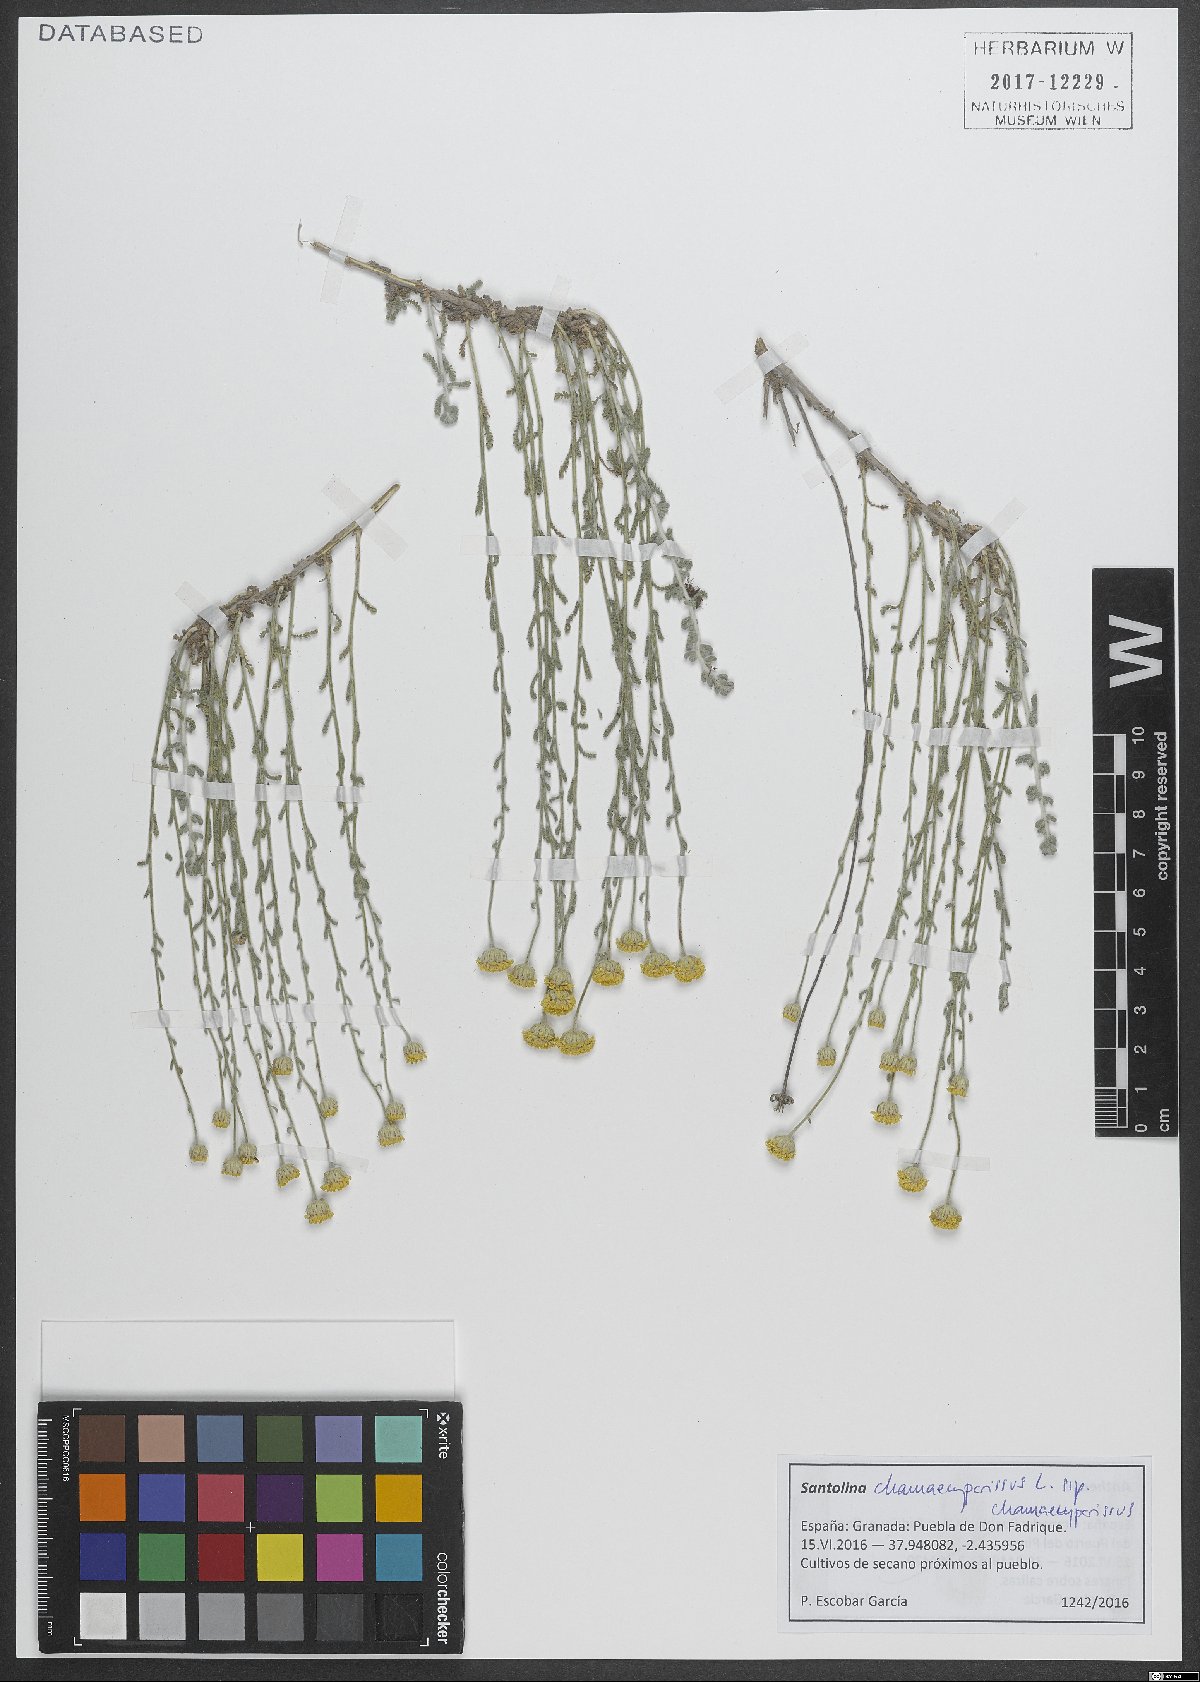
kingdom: Plantae
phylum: Tracheophyta
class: Magnoliopsida
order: Asterales
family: Asteraceae
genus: Santolina
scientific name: Santolina chamaecyparissus
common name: Lavender-cotton
